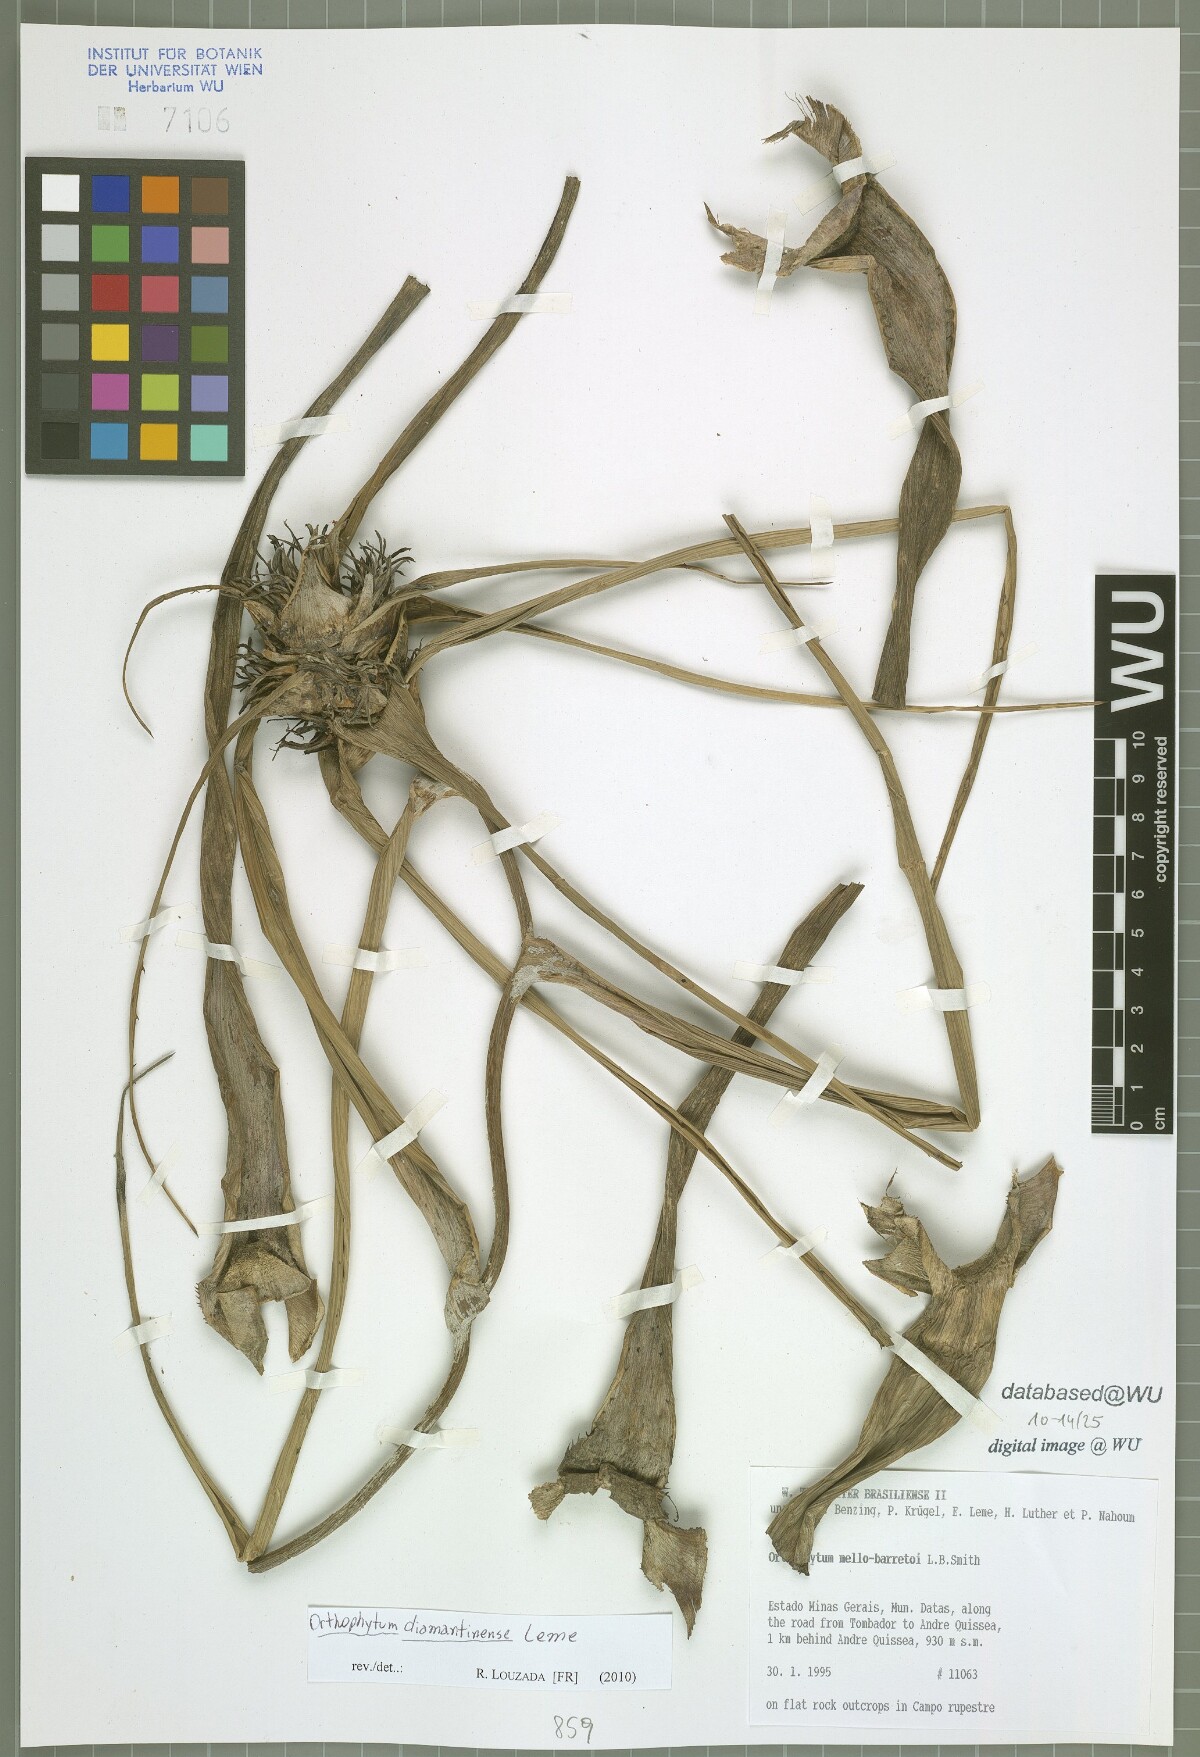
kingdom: Plantae
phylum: Tracheophyta
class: Liliopsida
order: Poales
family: Bromeliaceae
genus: Orthophytum
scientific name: Orthophytum diamantinense
